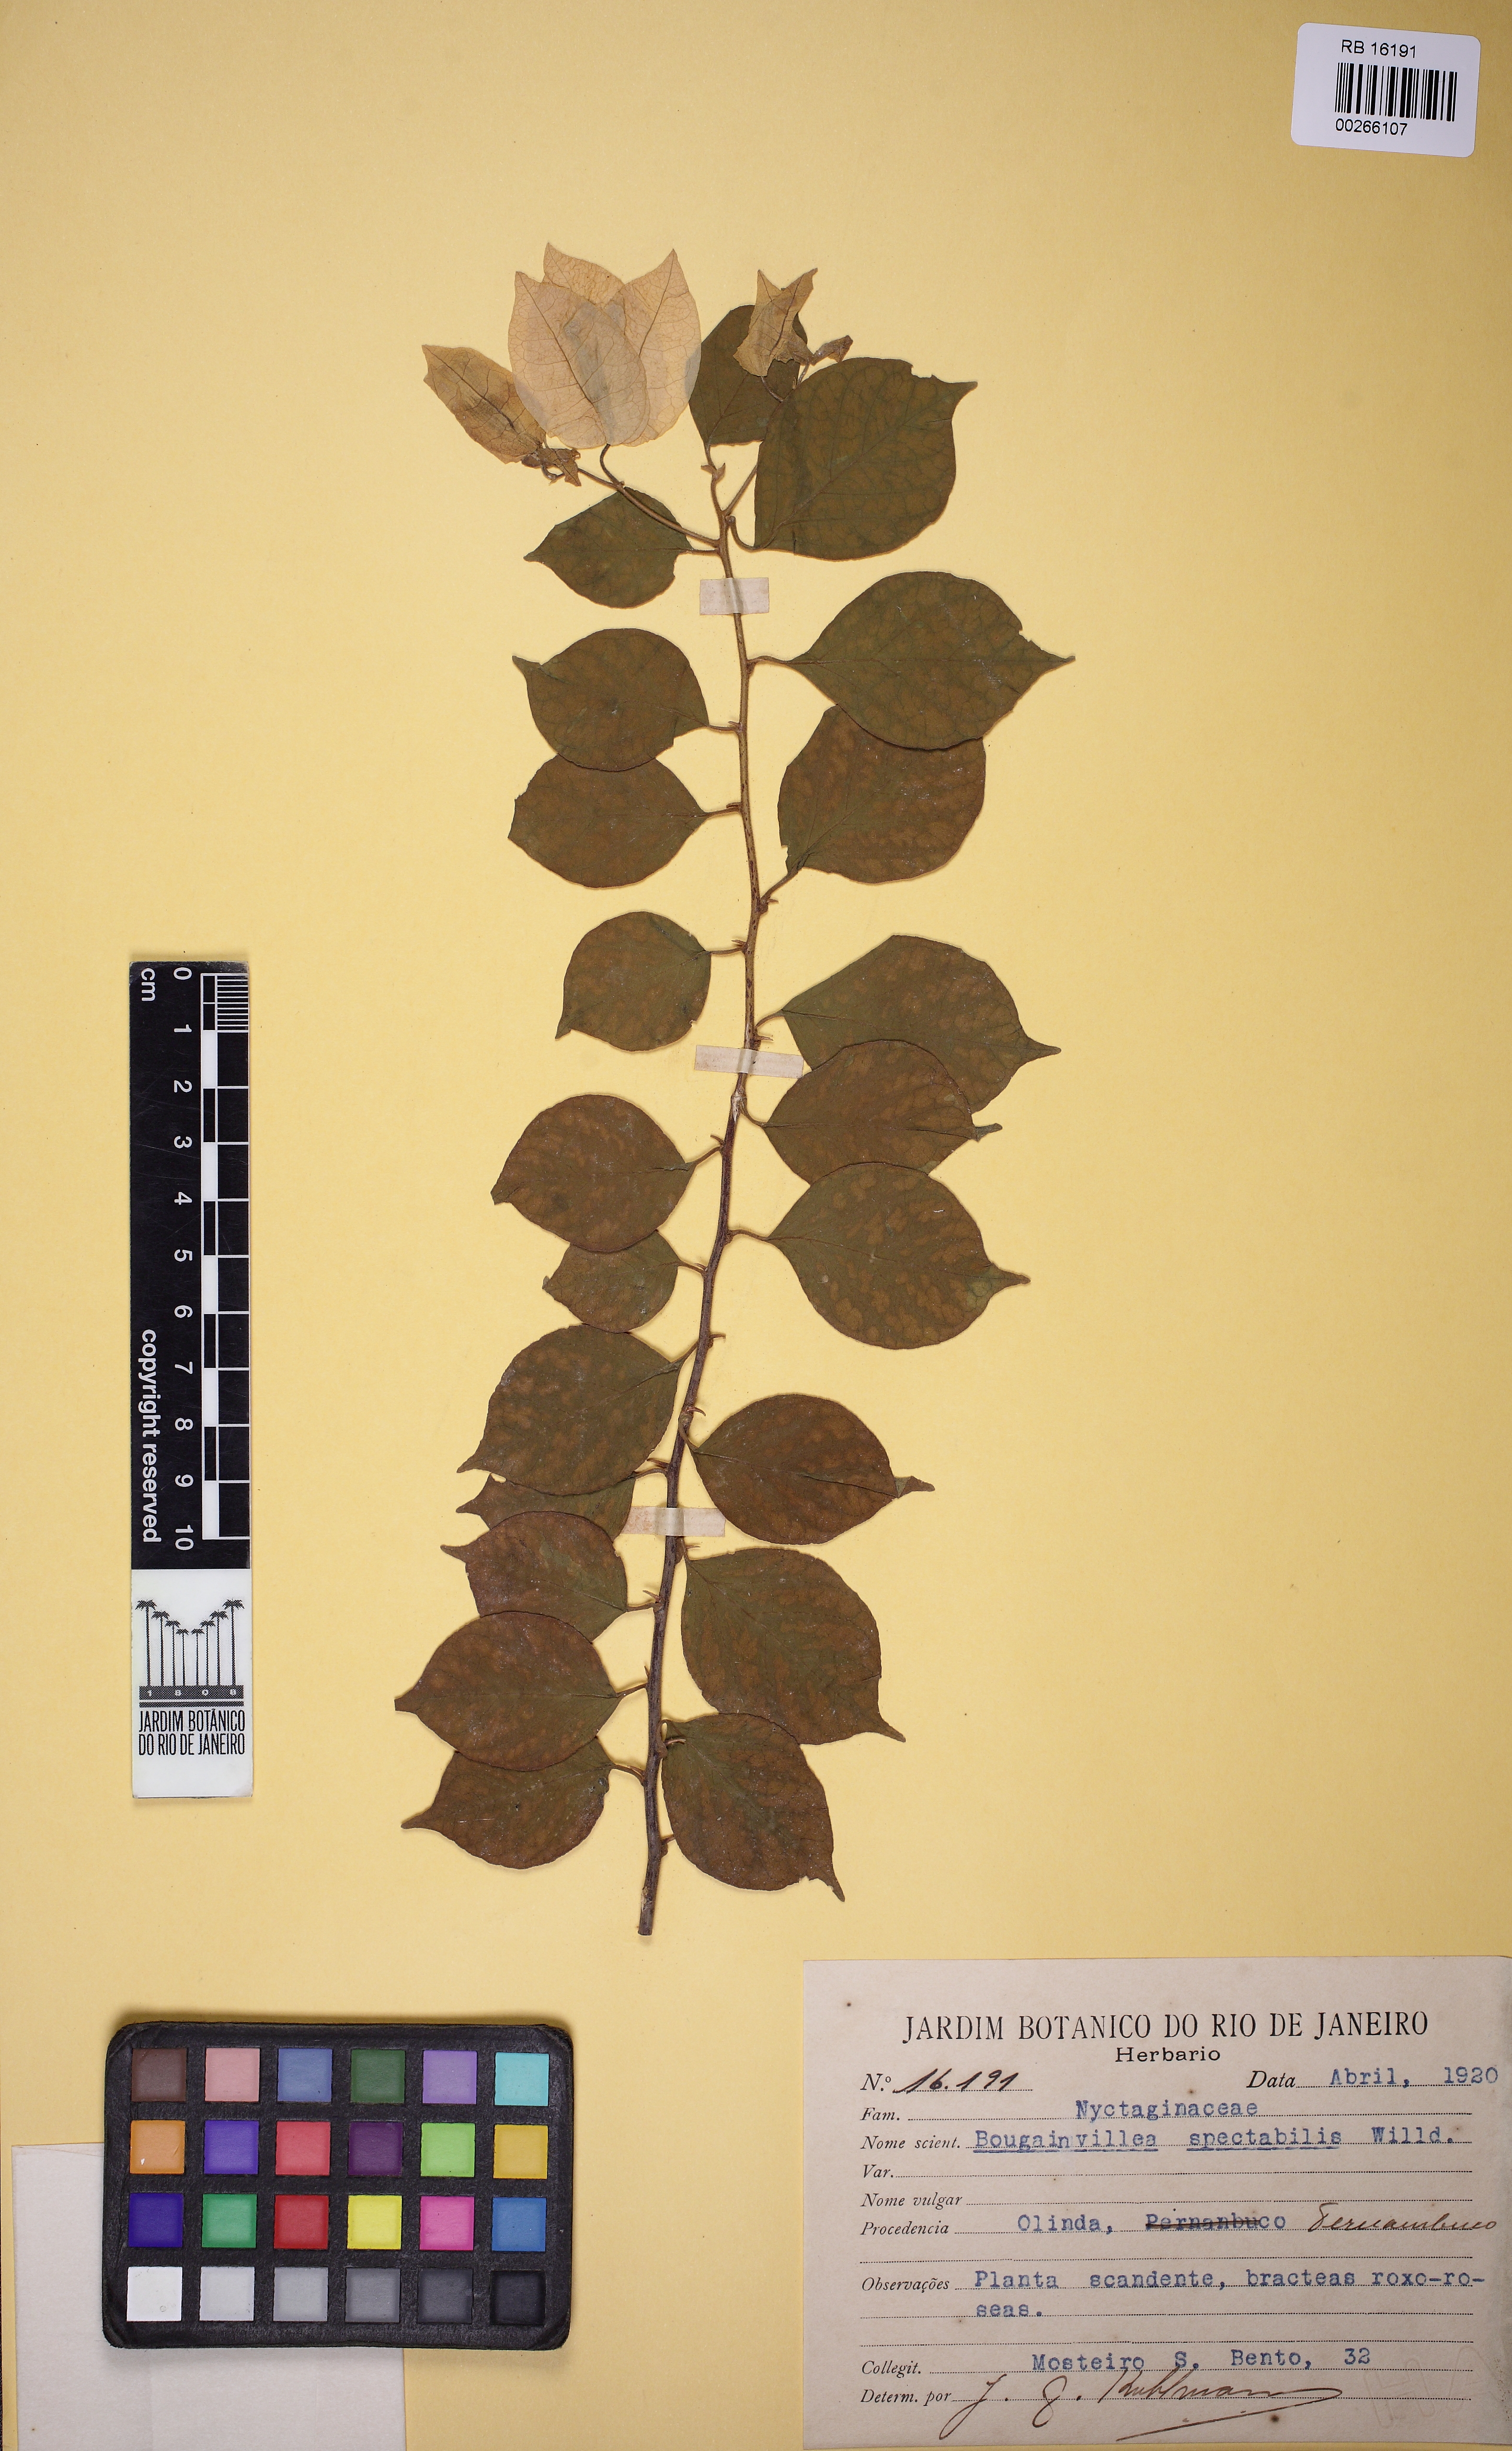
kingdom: Plantae
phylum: Tracheophyta
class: Magnoliopsida
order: Caryophyllales
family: Nyctaginaceae
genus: Bougainvillea
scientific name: Bougainvillea spectabilis
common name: Great bougainvillea
